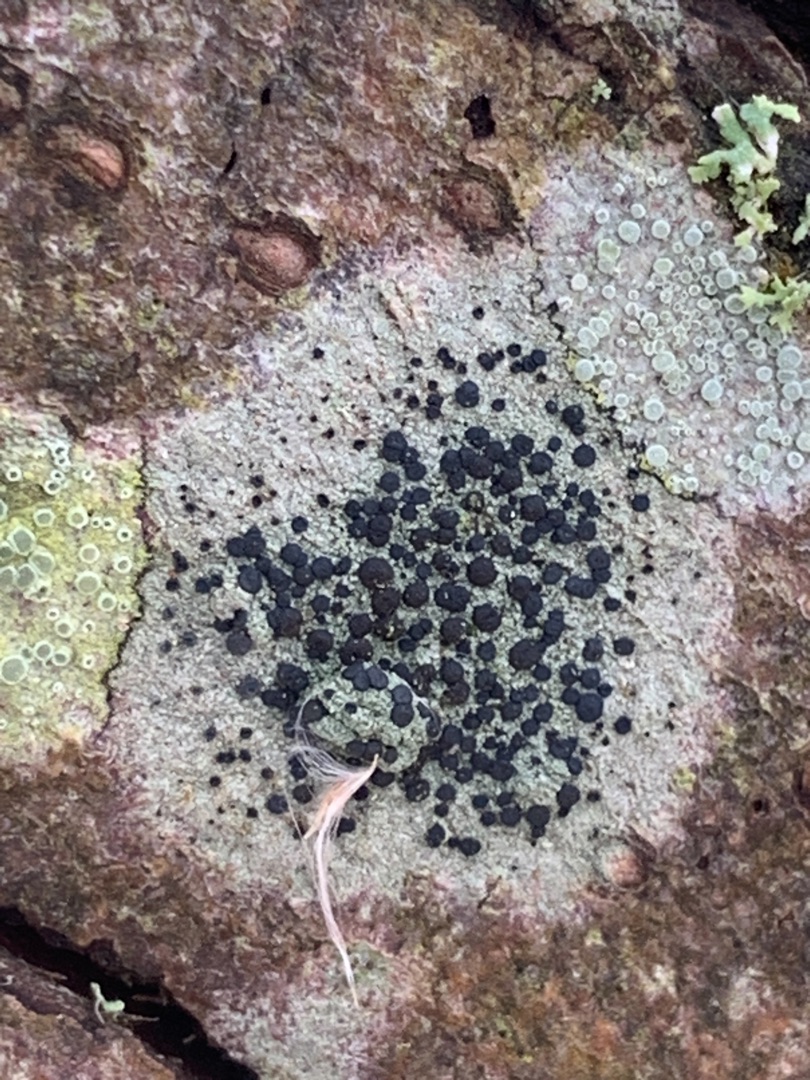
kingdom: Fungi
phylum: Ascomycota
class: Lecanoromycetes
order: Lecanorales
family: Lecanoraceae
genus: Lecidella
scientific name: Lecidella elaeochroma
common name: Grågrøn skivelav
